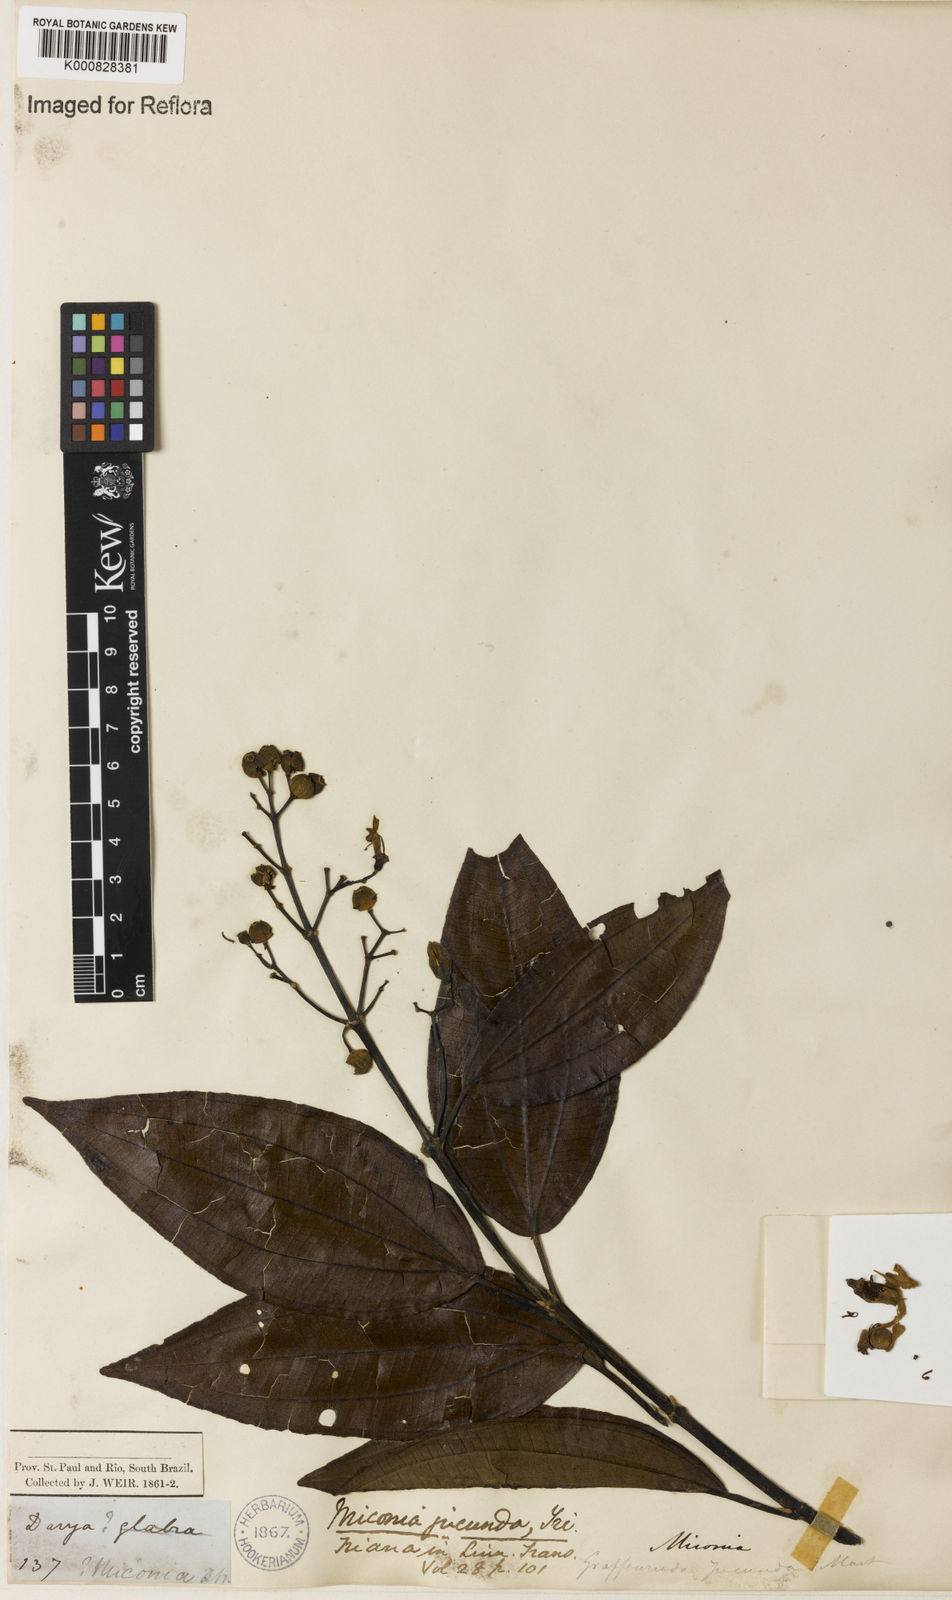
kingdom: Plantae
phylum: Tracheophyta
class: Magnoliopsida
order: Myrtales
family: Melastomataceae
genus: Miconia
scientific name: Miconia jucunda
